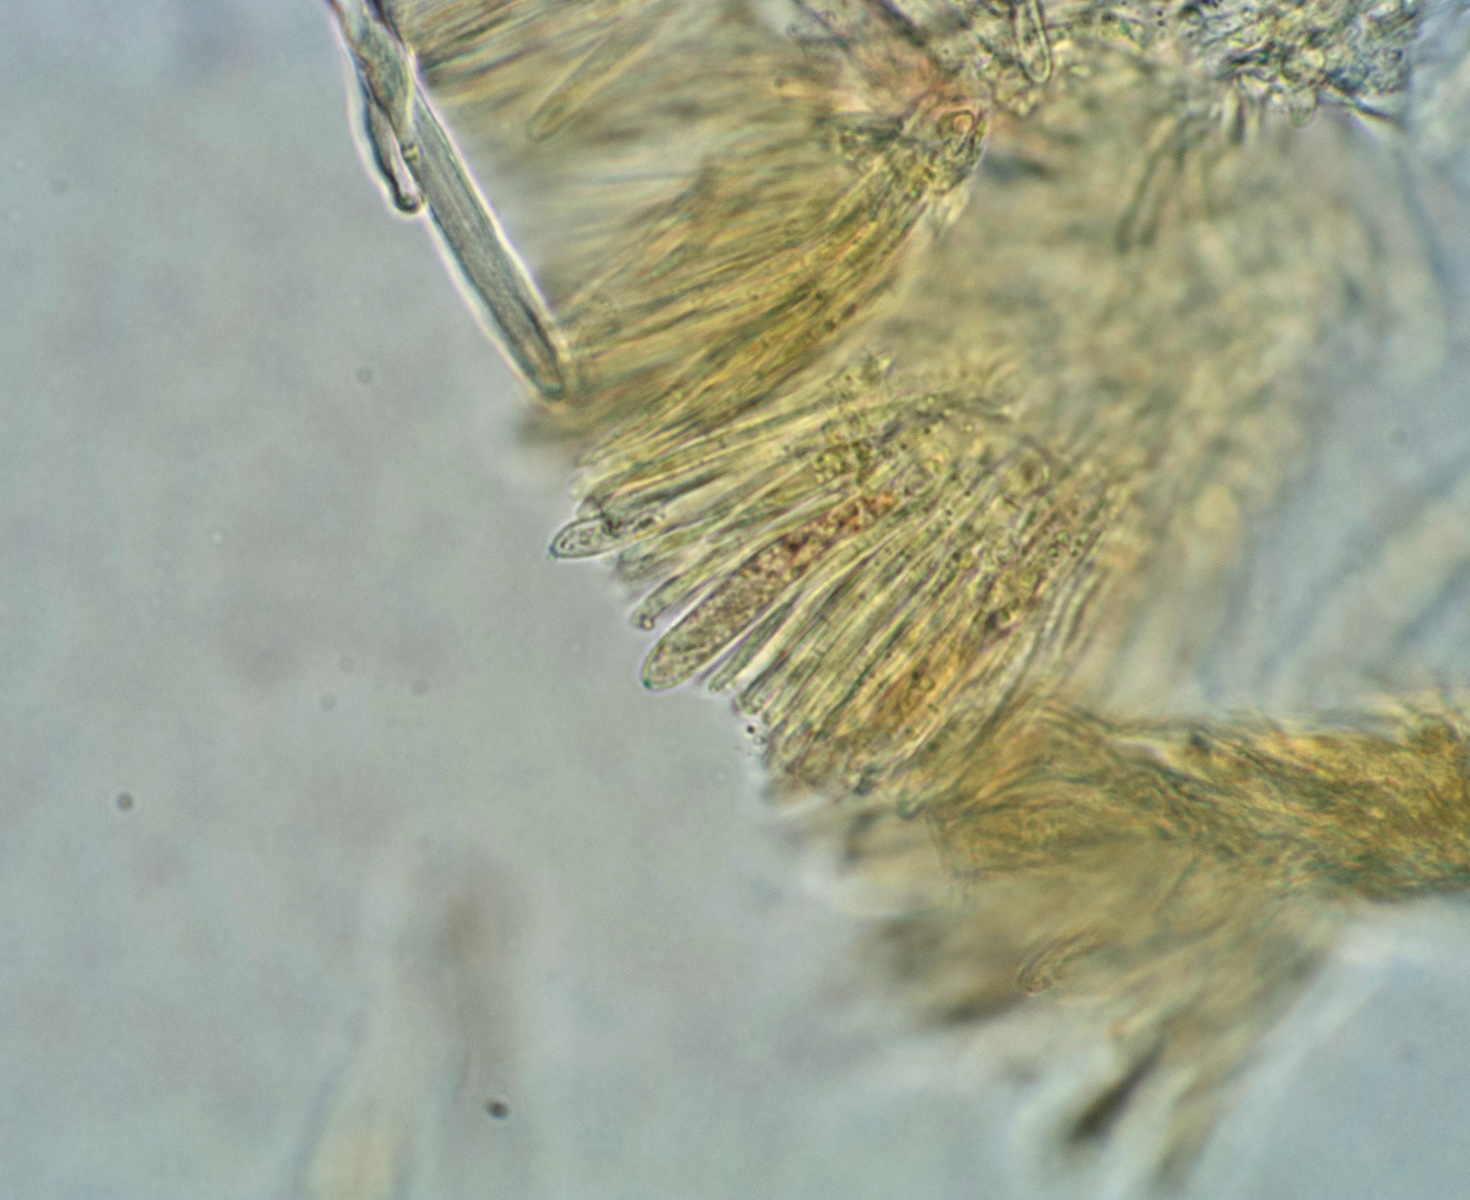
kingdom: Fungi
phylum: Ascomycota
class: Leotiomycetes
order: Helotiales
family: Hyaloscyphaceae
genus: Urceolella
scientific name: Urceolella crispula
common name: tangenthåret kugleskive
